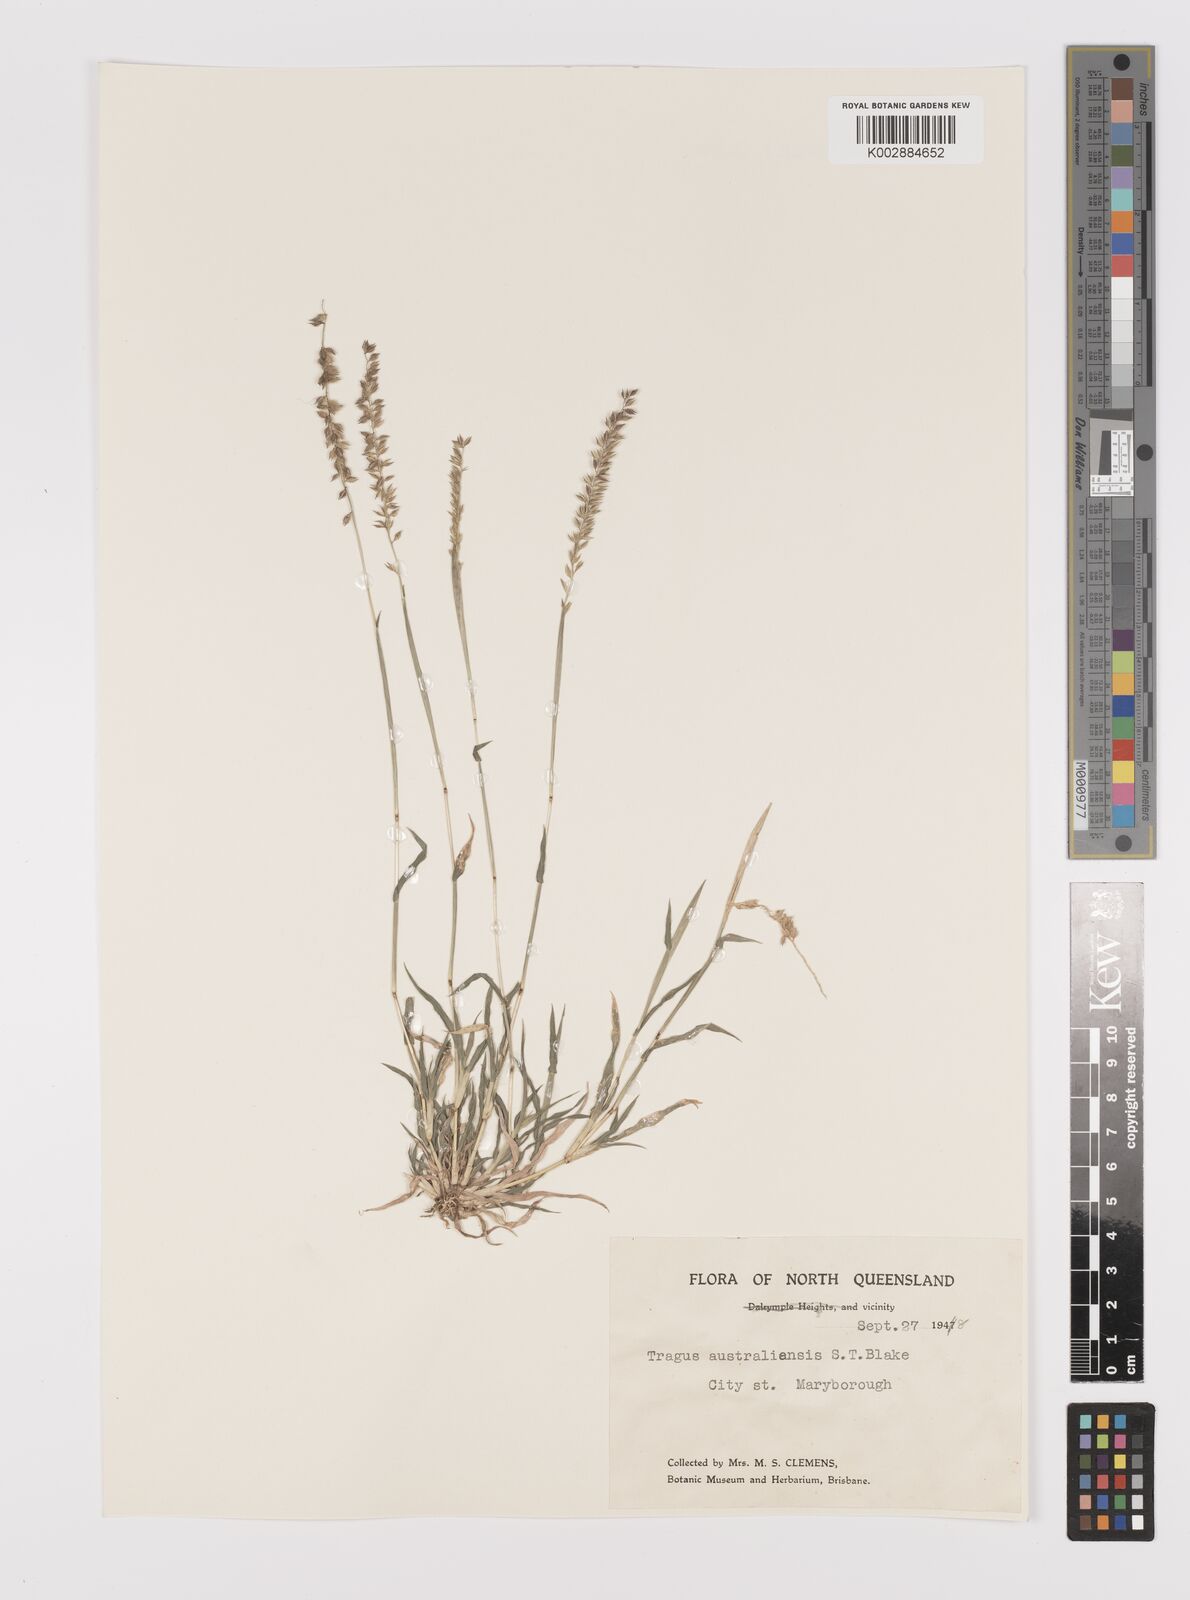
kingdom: Plantae
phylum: Tracheophyta
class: Liliopsida
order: Poales
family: Poaceae
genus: Tragus
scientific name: Tragus australianus
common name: Australian bur-grass
